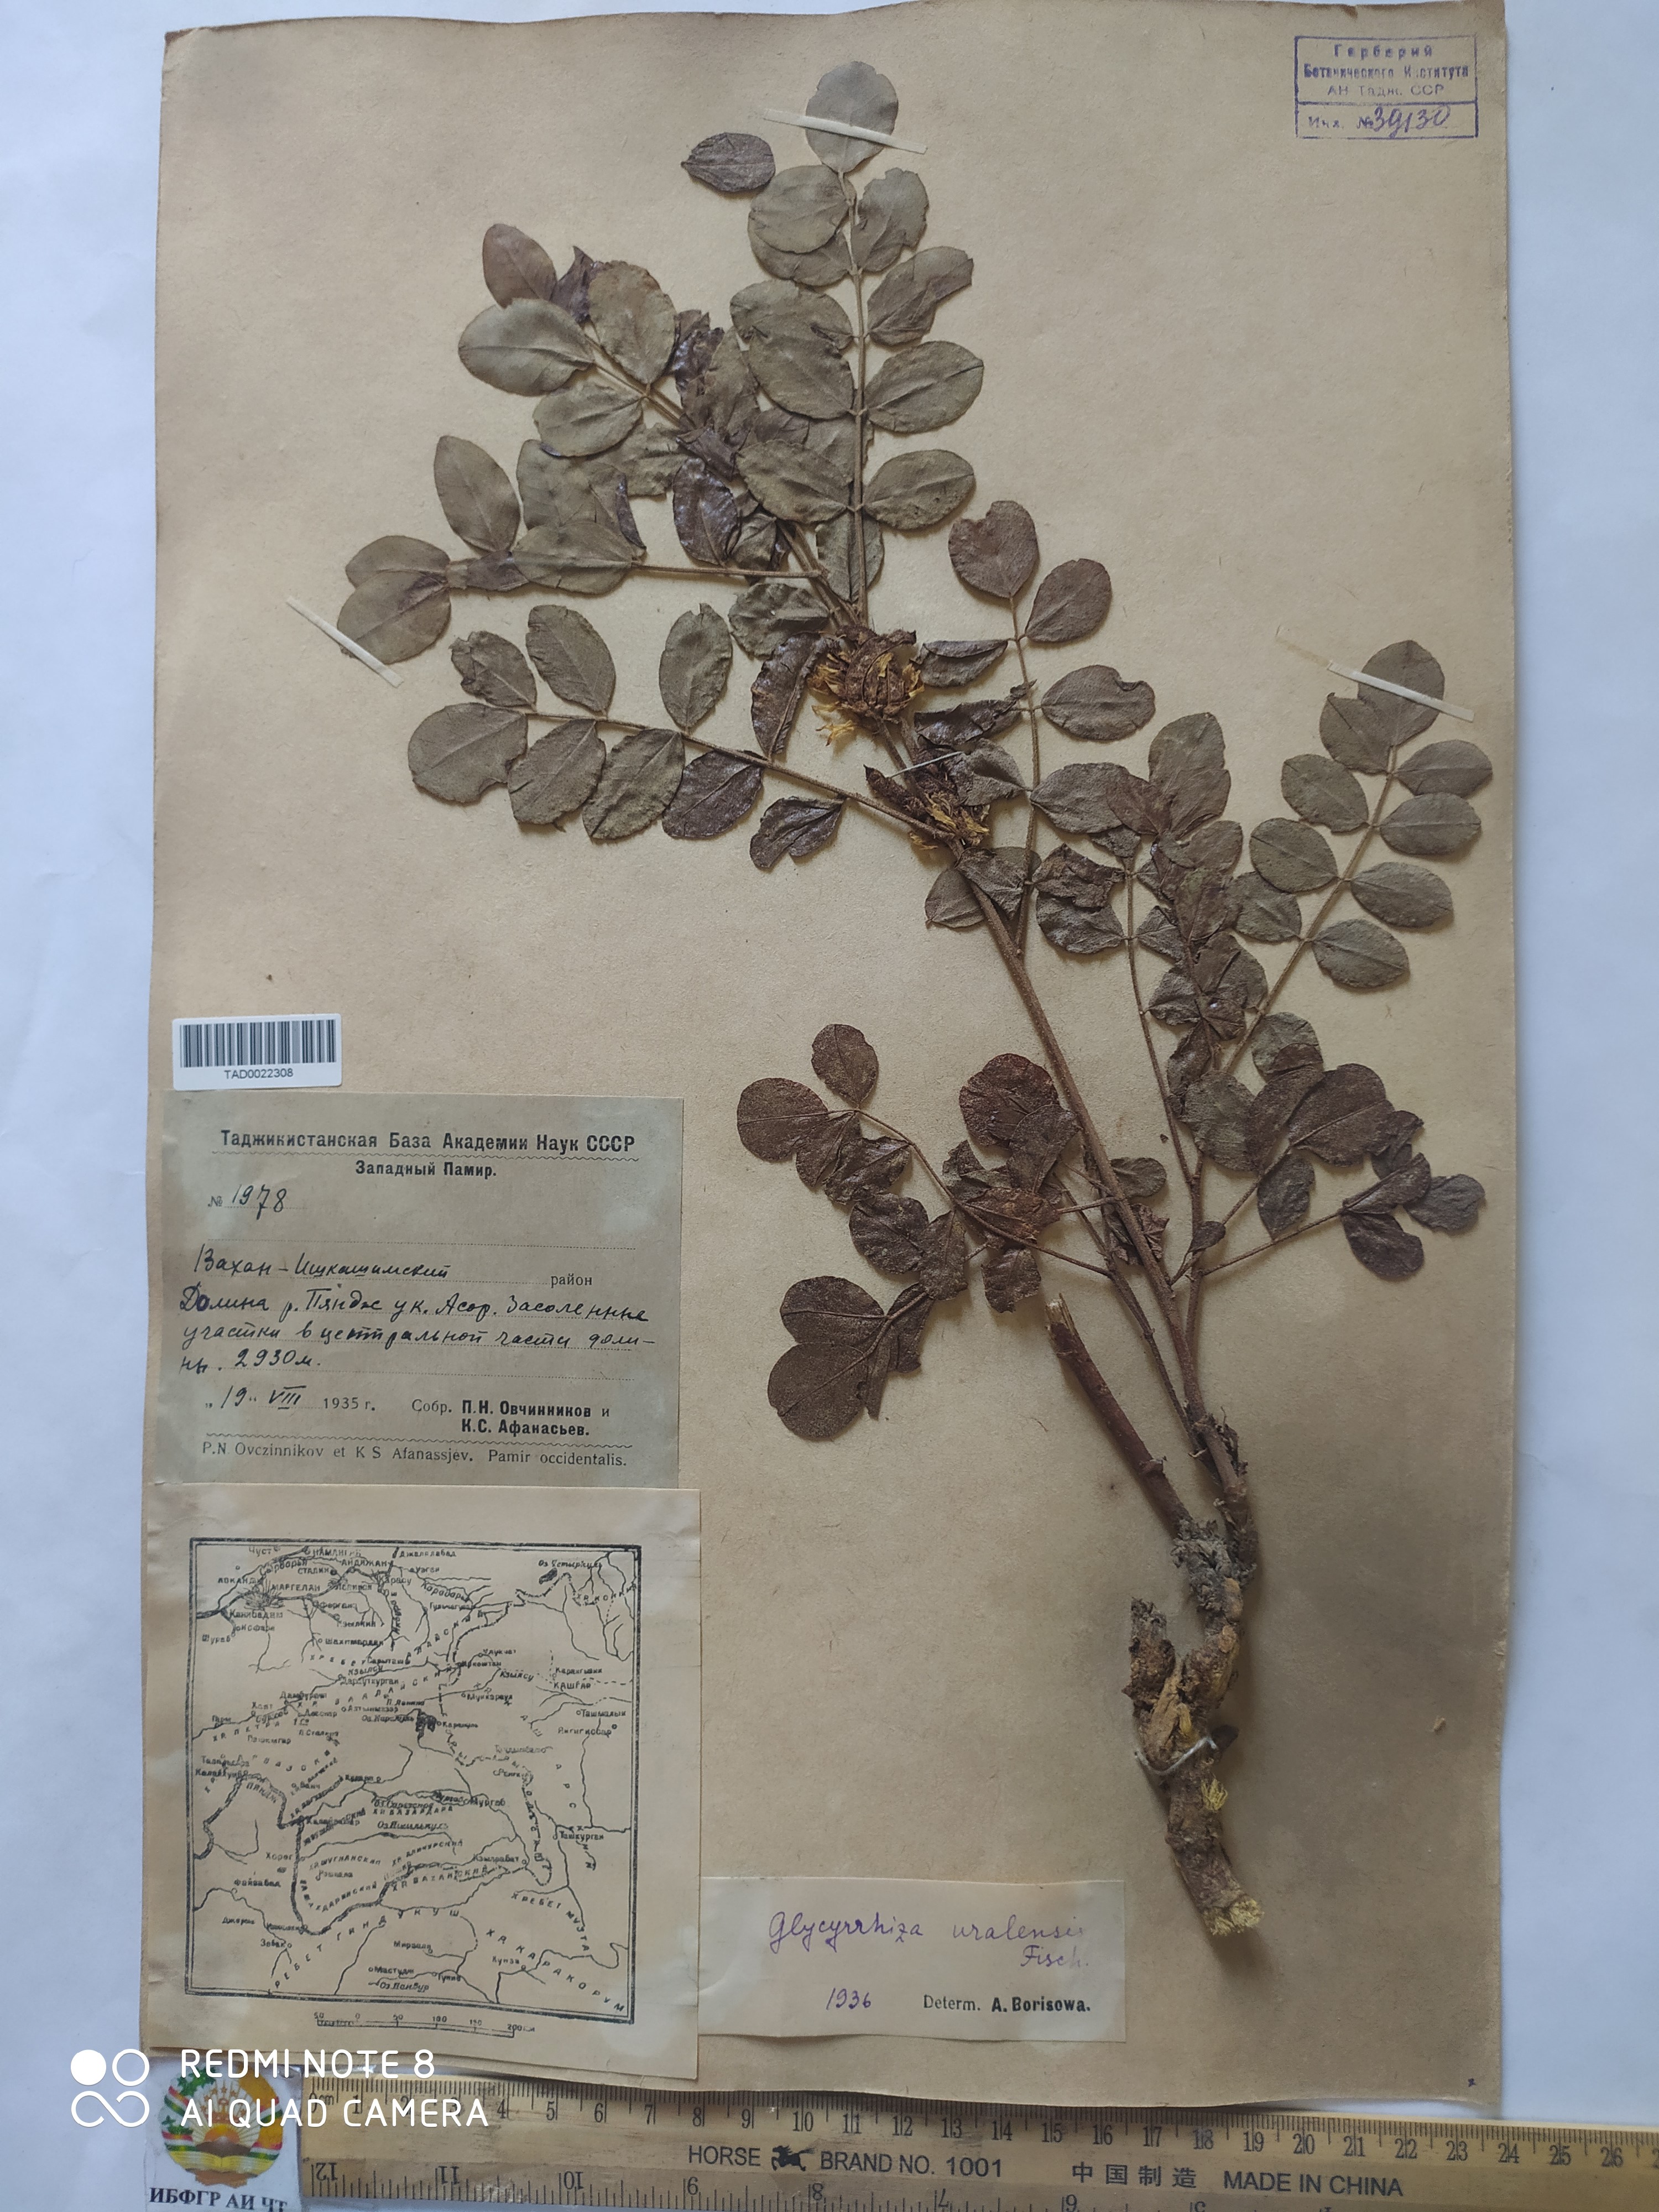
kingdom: Plantae
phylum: Tracheophyta
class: Magnoliopsida
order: Fabales
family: Fabaceae
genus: Glycyrrhiza
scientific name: Glycyrrhiza uralensis
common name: Chinese licorice
